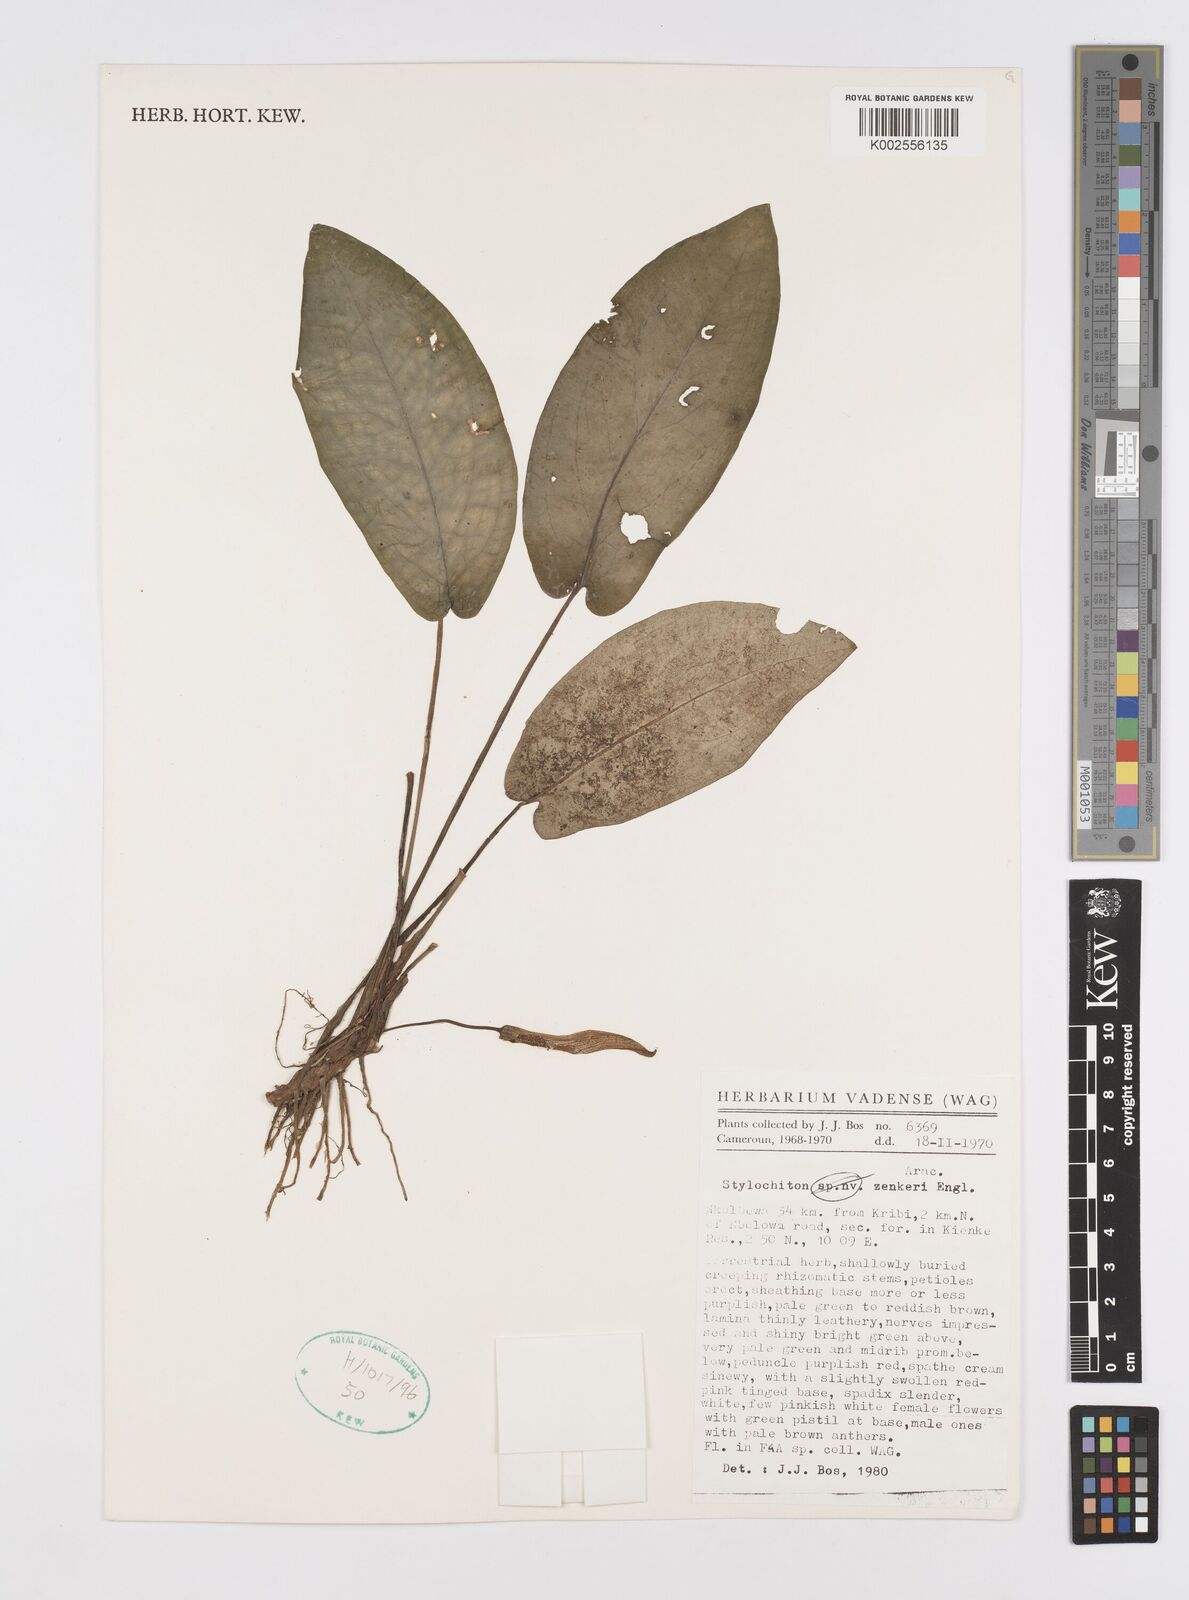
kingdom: Plantae
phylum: Tracheophyta
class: Liliopsida
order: Alismatales
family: Araceae
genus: Stylochaeton
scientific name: Stylochaeton zenkeri
